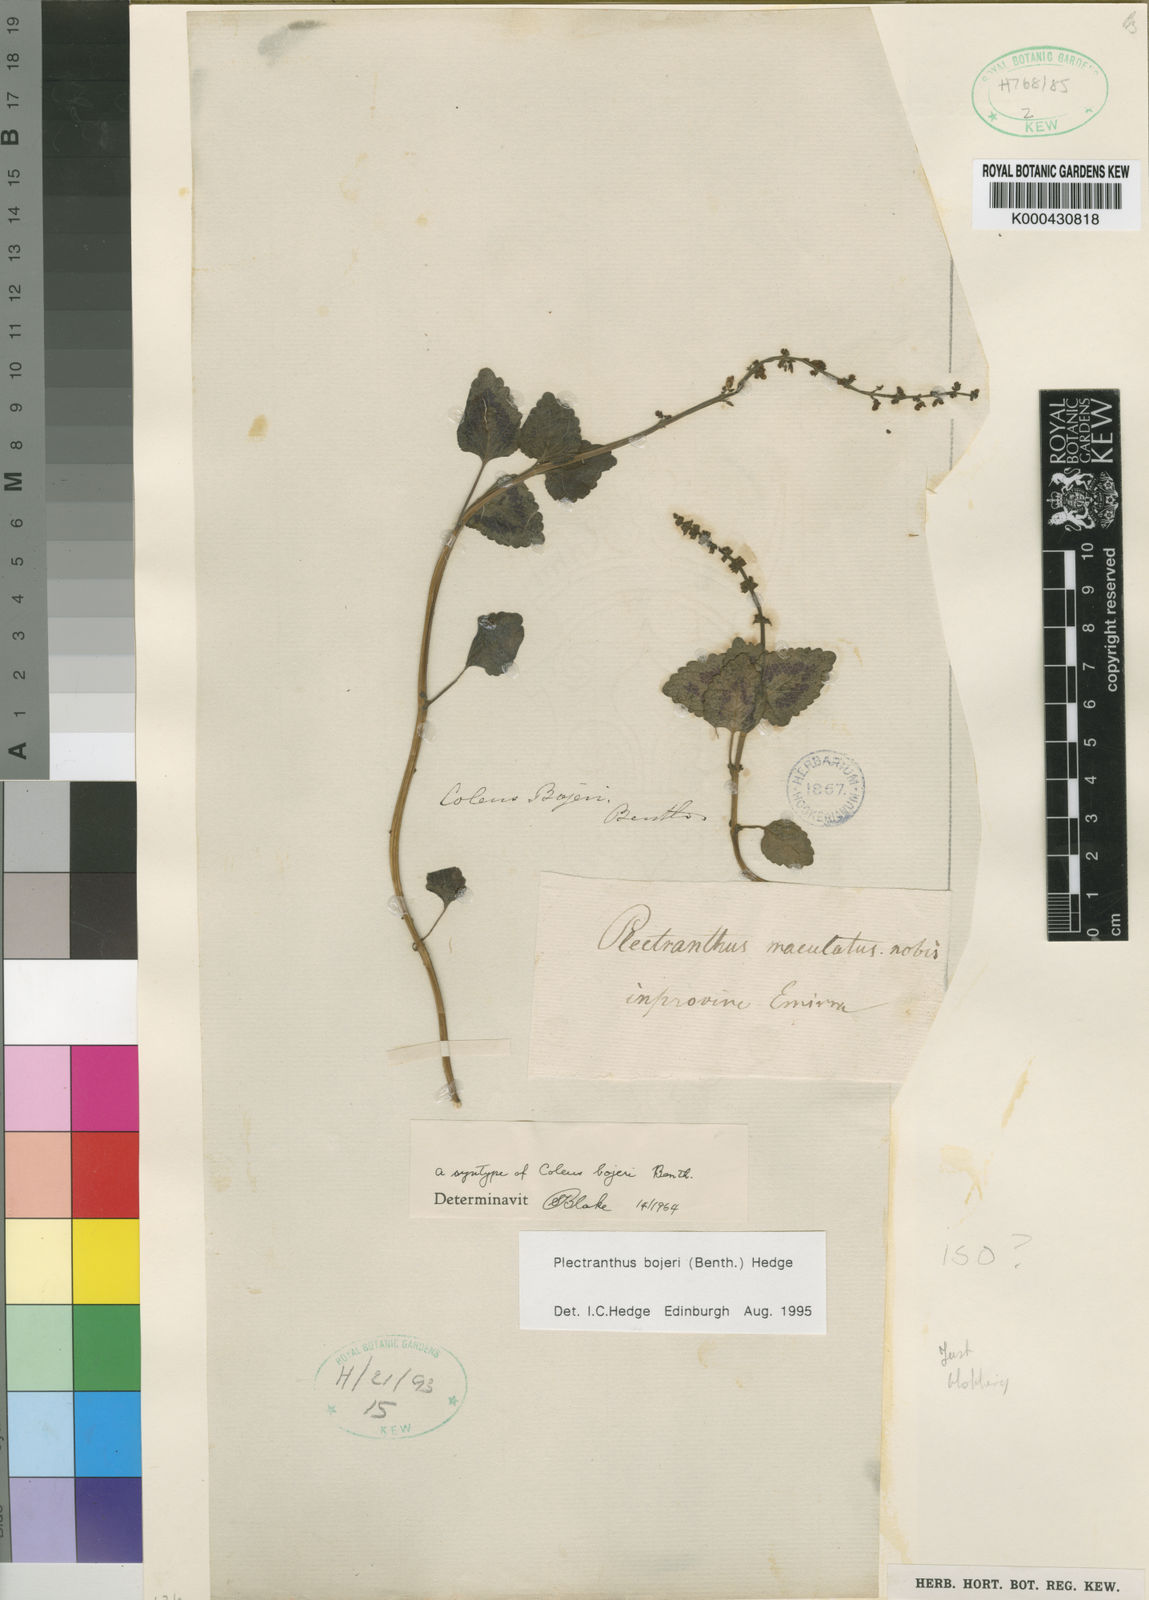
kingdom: Plantae
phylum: Tracheophyta
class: Magnoliopsida
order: Lamiales
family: Lamiaceae
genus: Coleus
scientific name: Coleus bojeri
